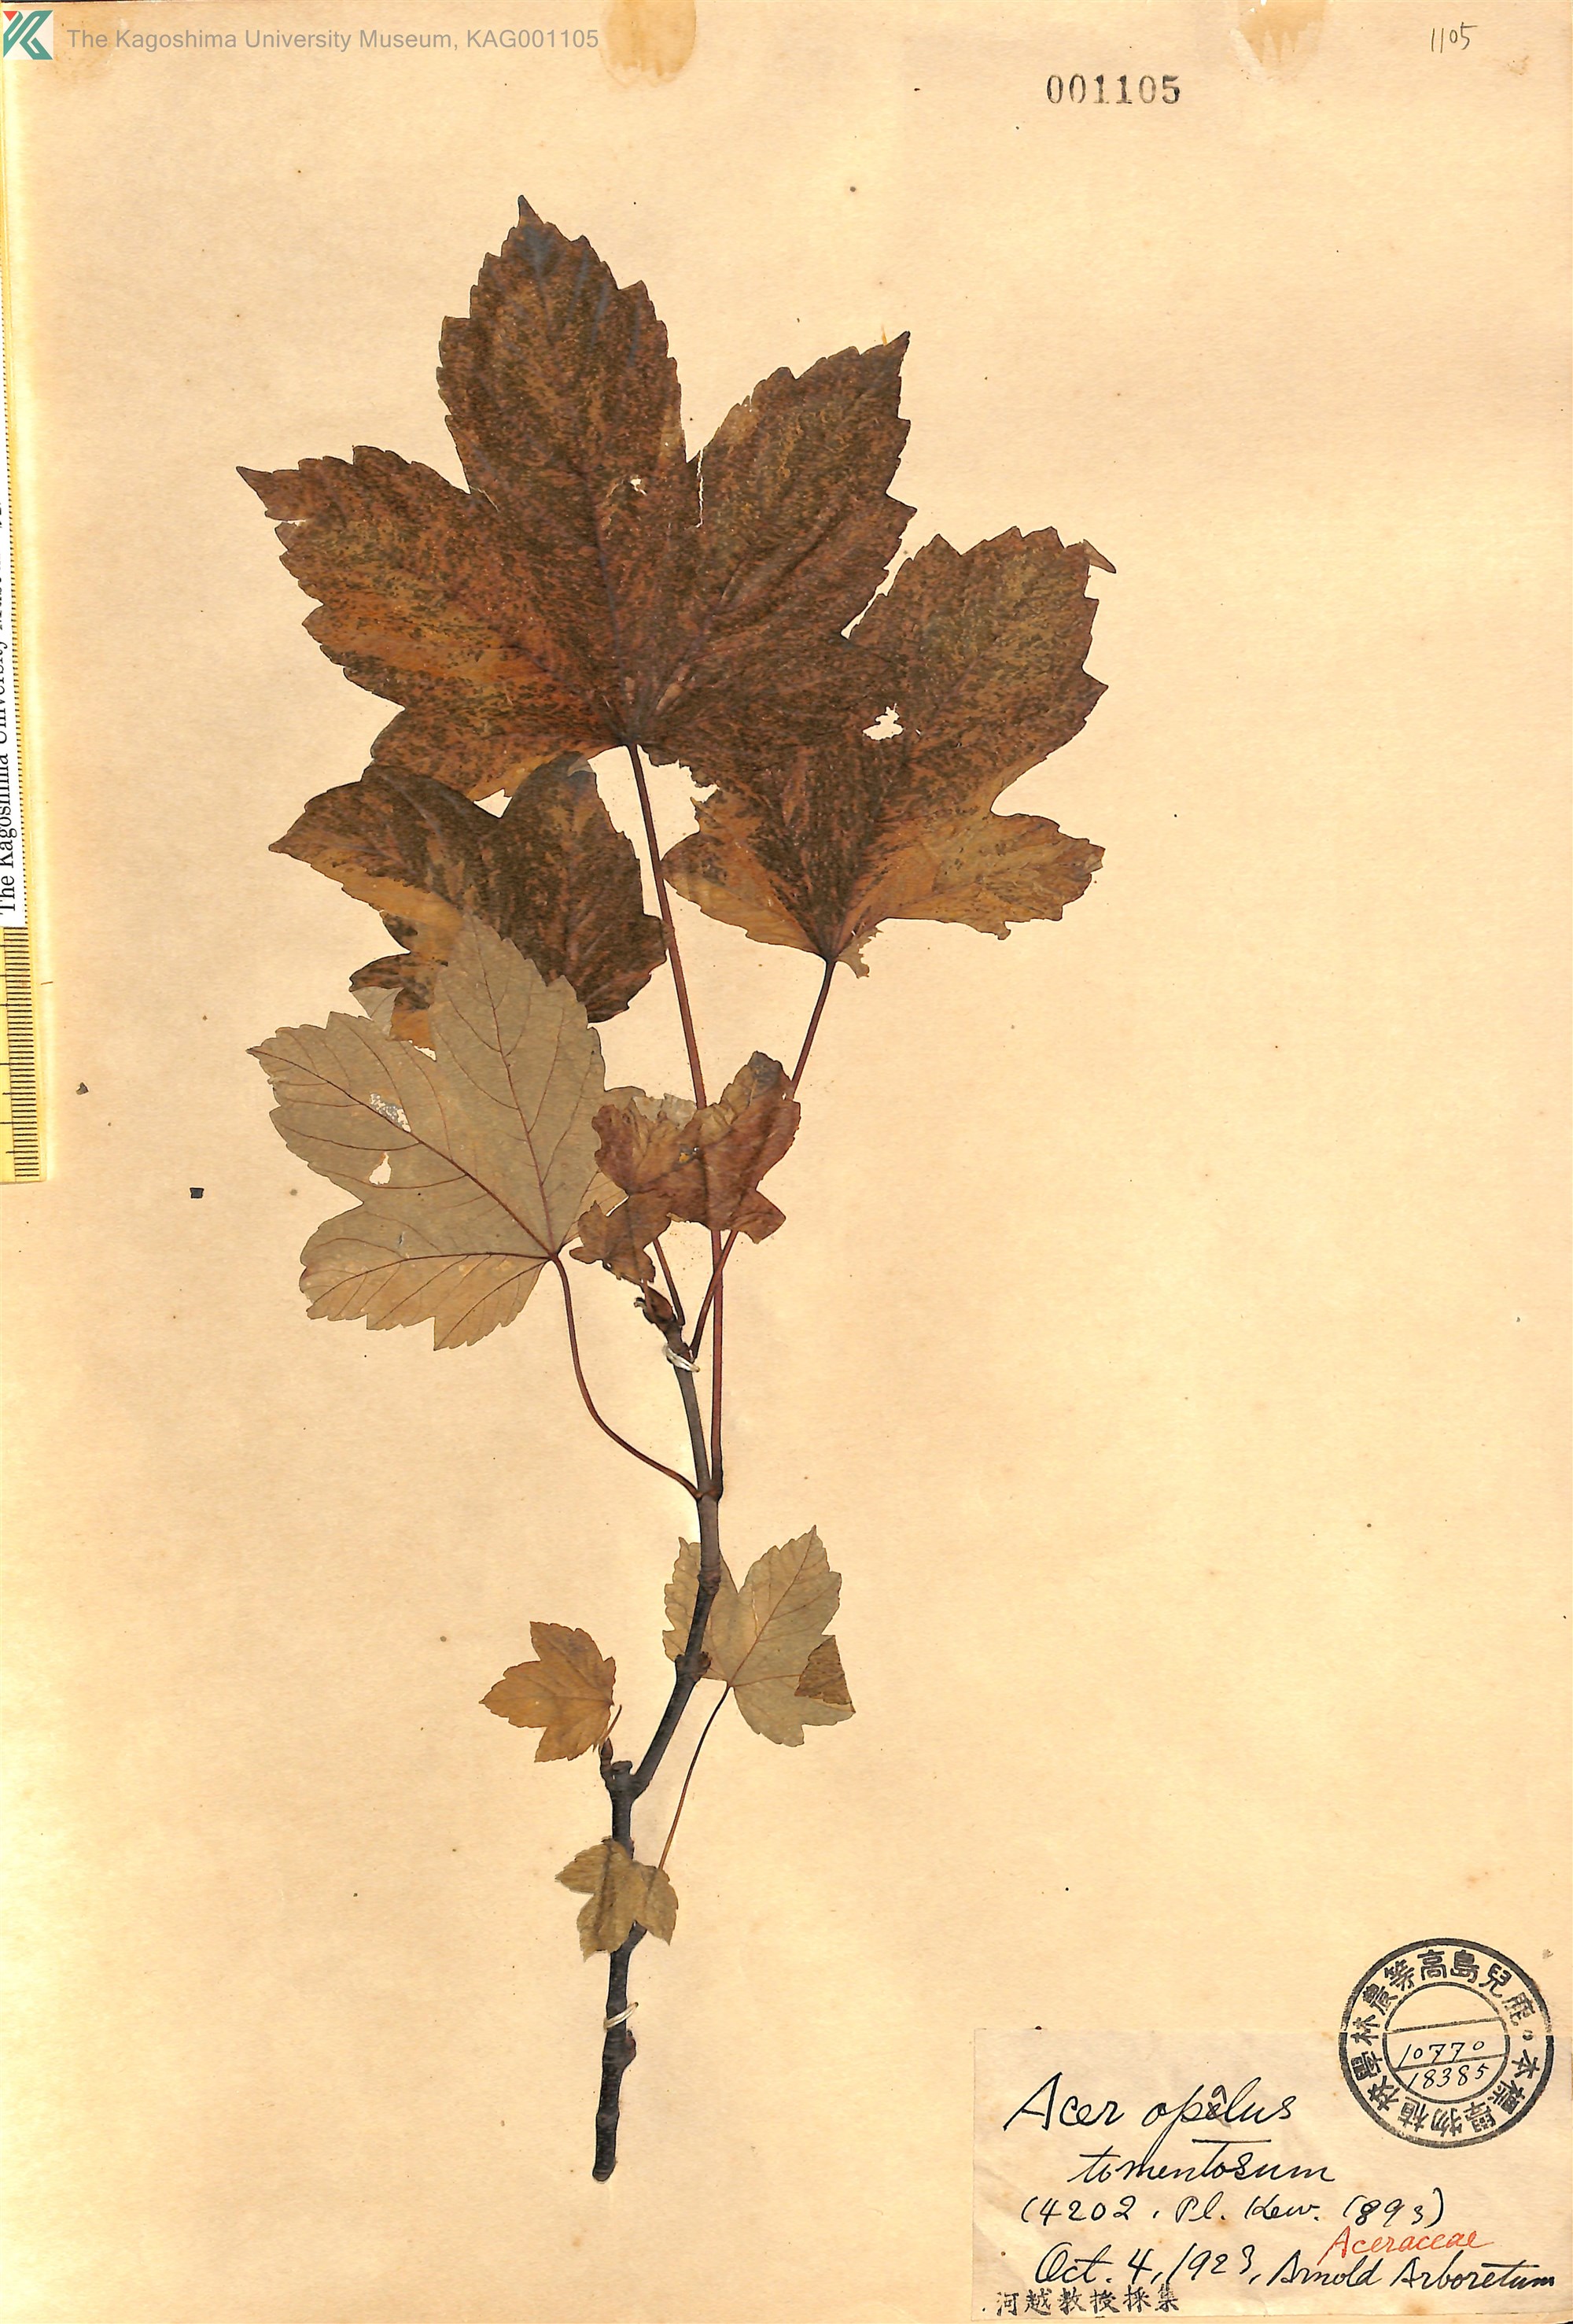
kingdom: Plantae
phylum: Tracheophyta
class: Magnoliopsida
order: Sapindales
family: Sapindaceae
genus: Acer
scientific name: Acer obtusatum
